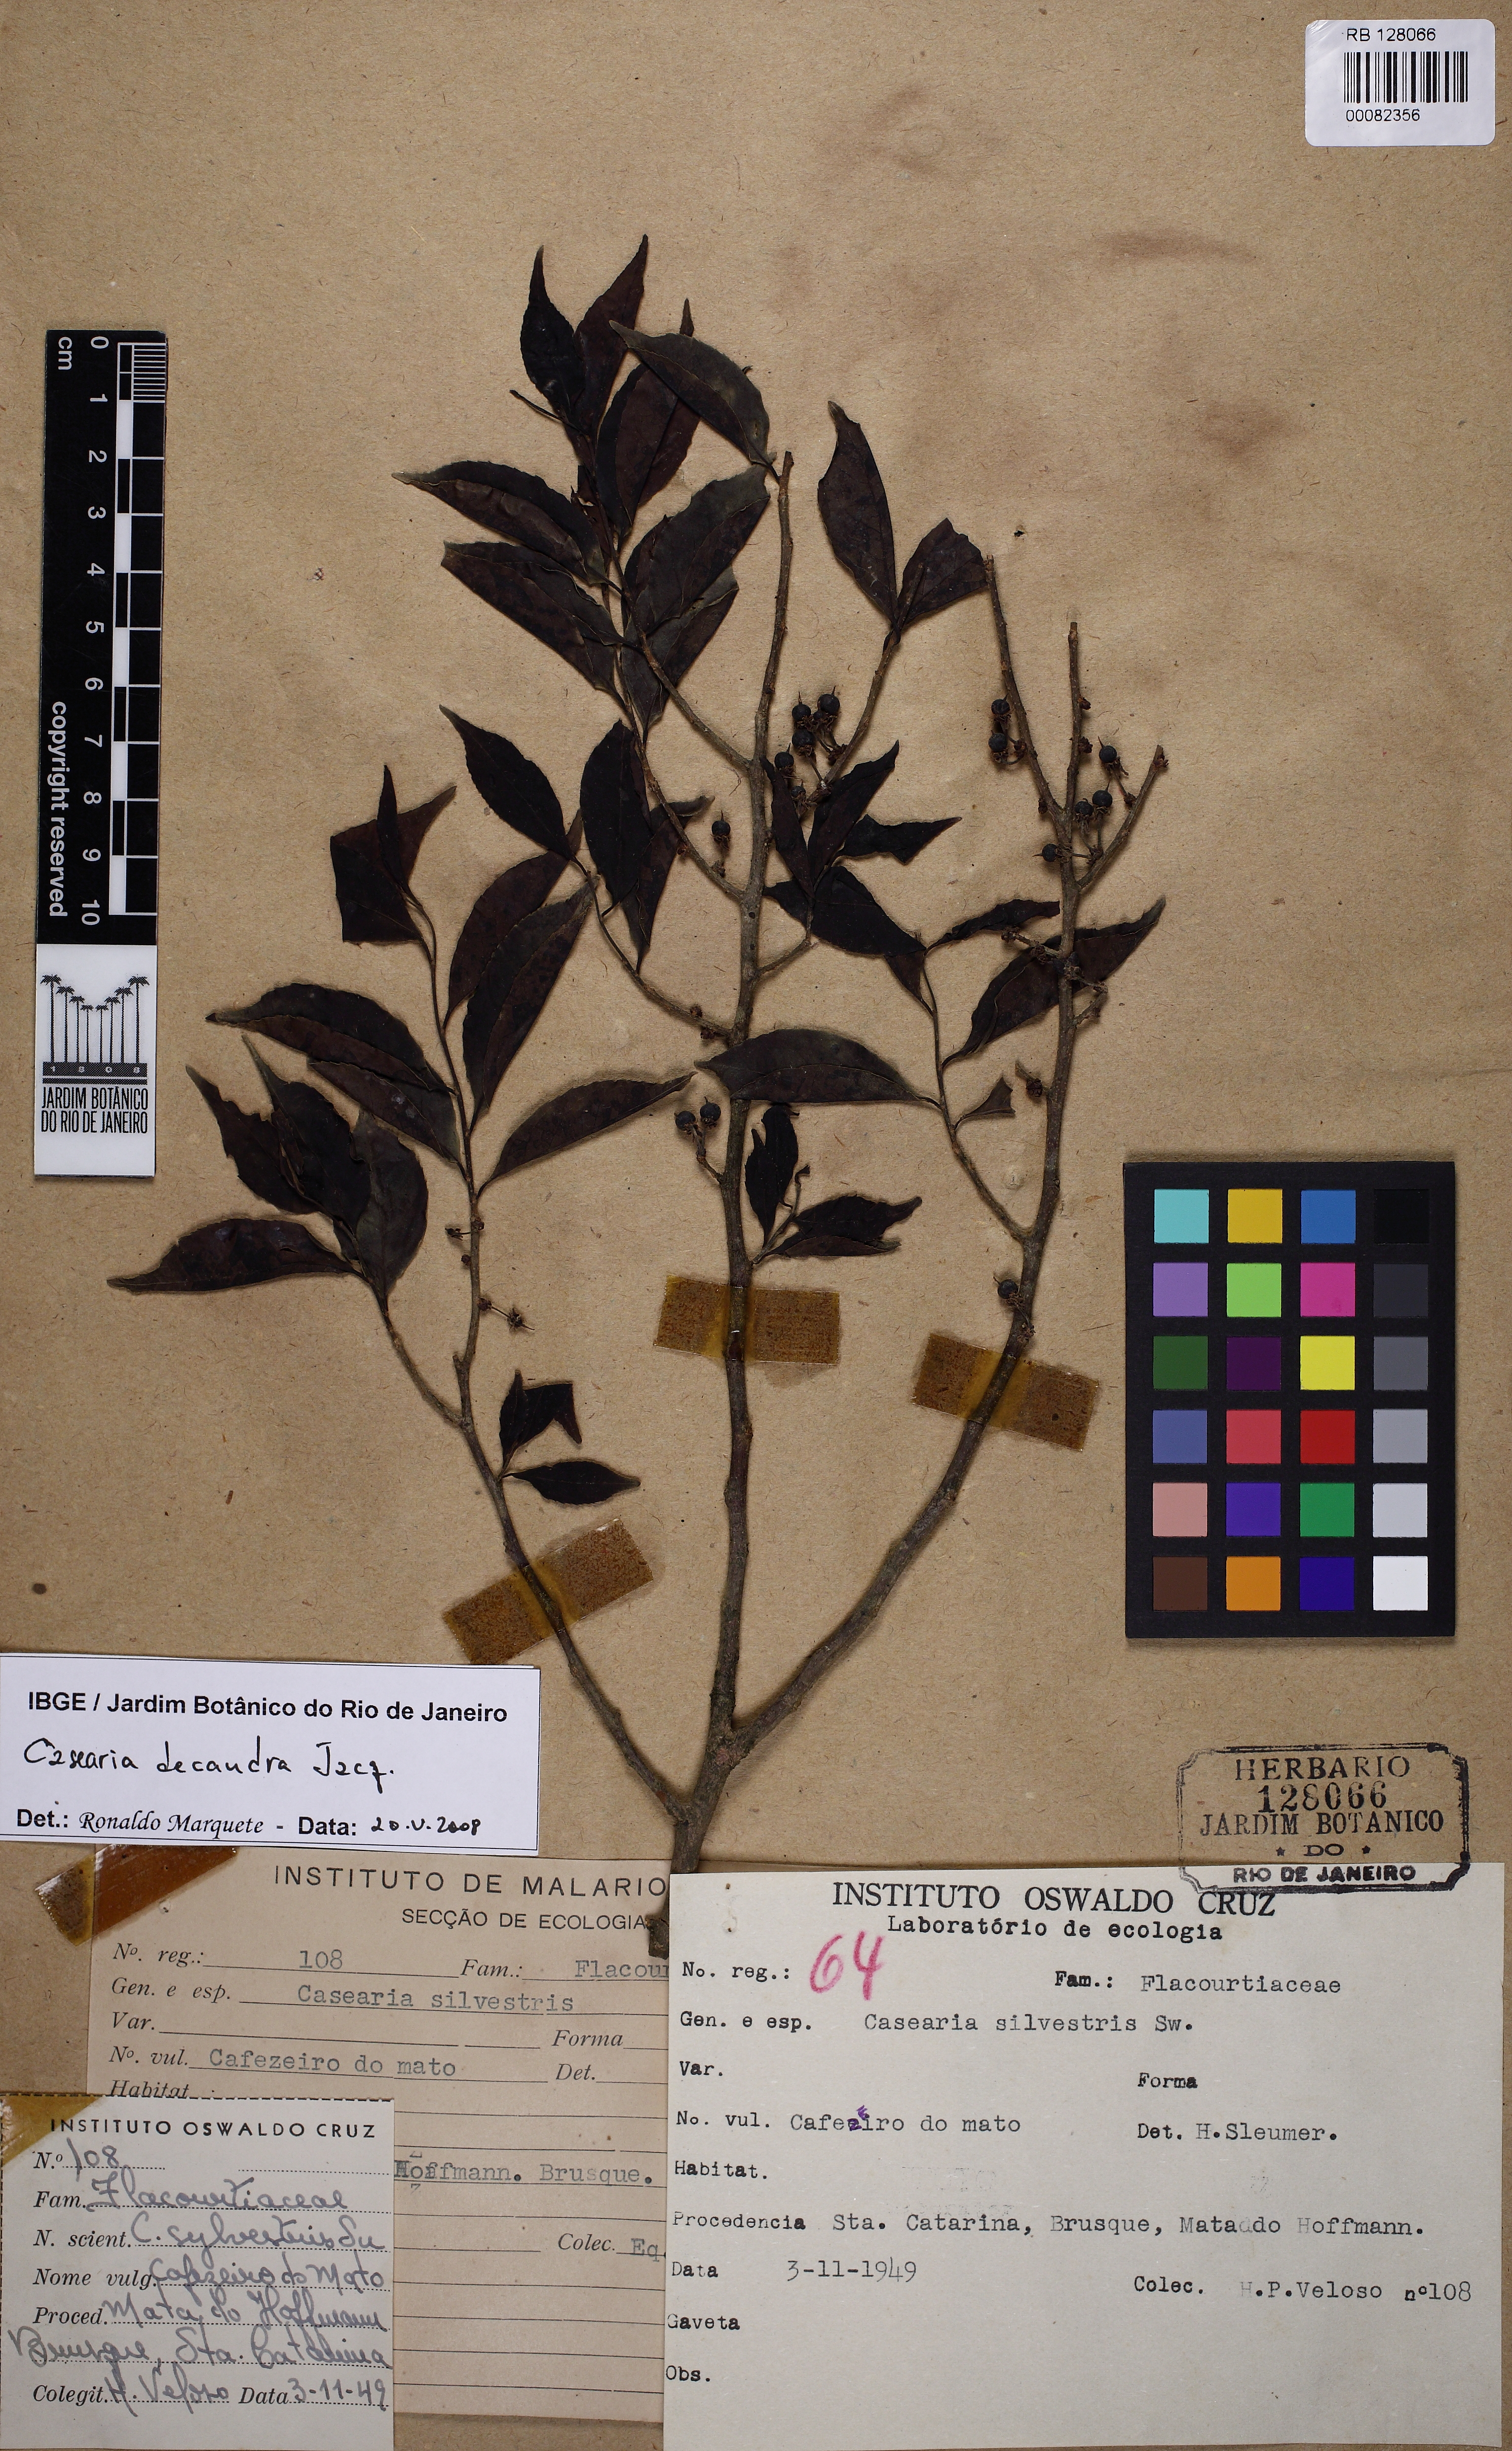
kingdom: Plantae
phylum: Tracheophyta
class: Magnoliopsida
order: Malpighiales
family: Salicaceae
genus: Casearia
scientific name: Casearia decandra
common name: Crack open
